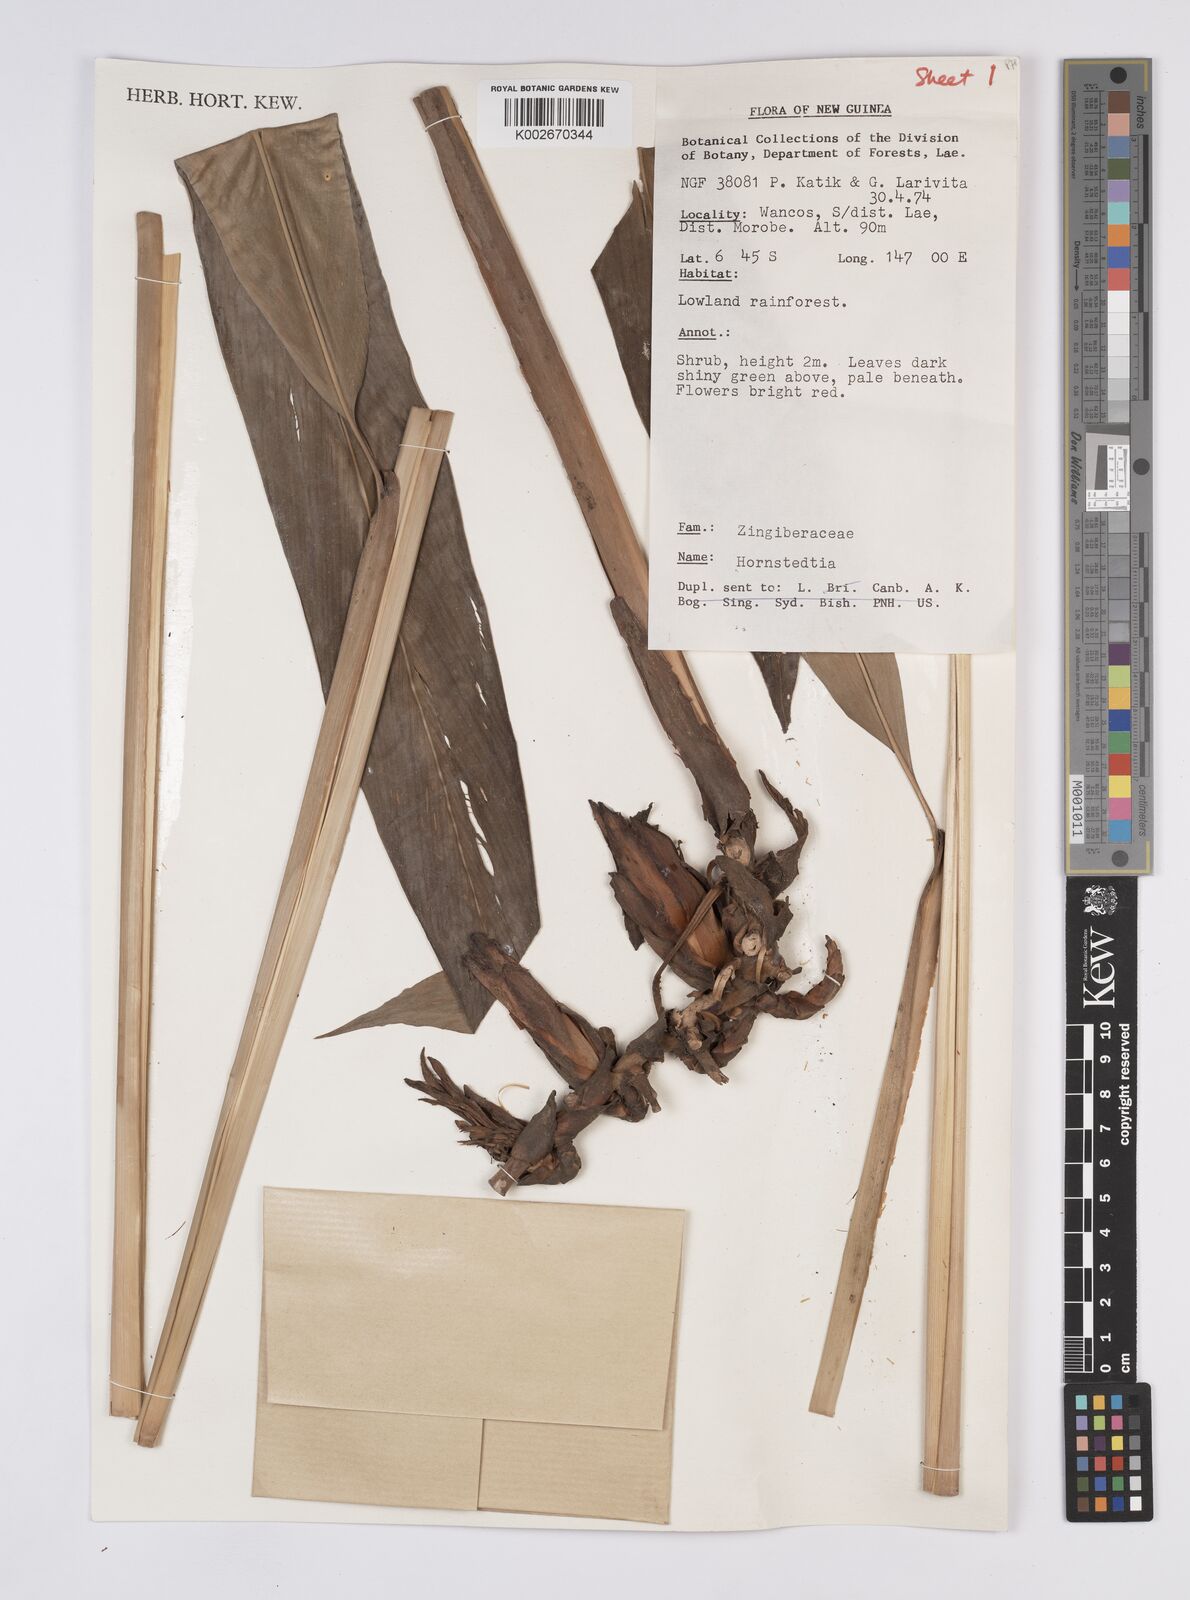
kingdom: Plantae
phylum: Tracheophyta
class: Liliopsida
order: Zingiberales
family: Zingiberaceae
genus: Hornstedtia
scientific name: Hornstedtia
